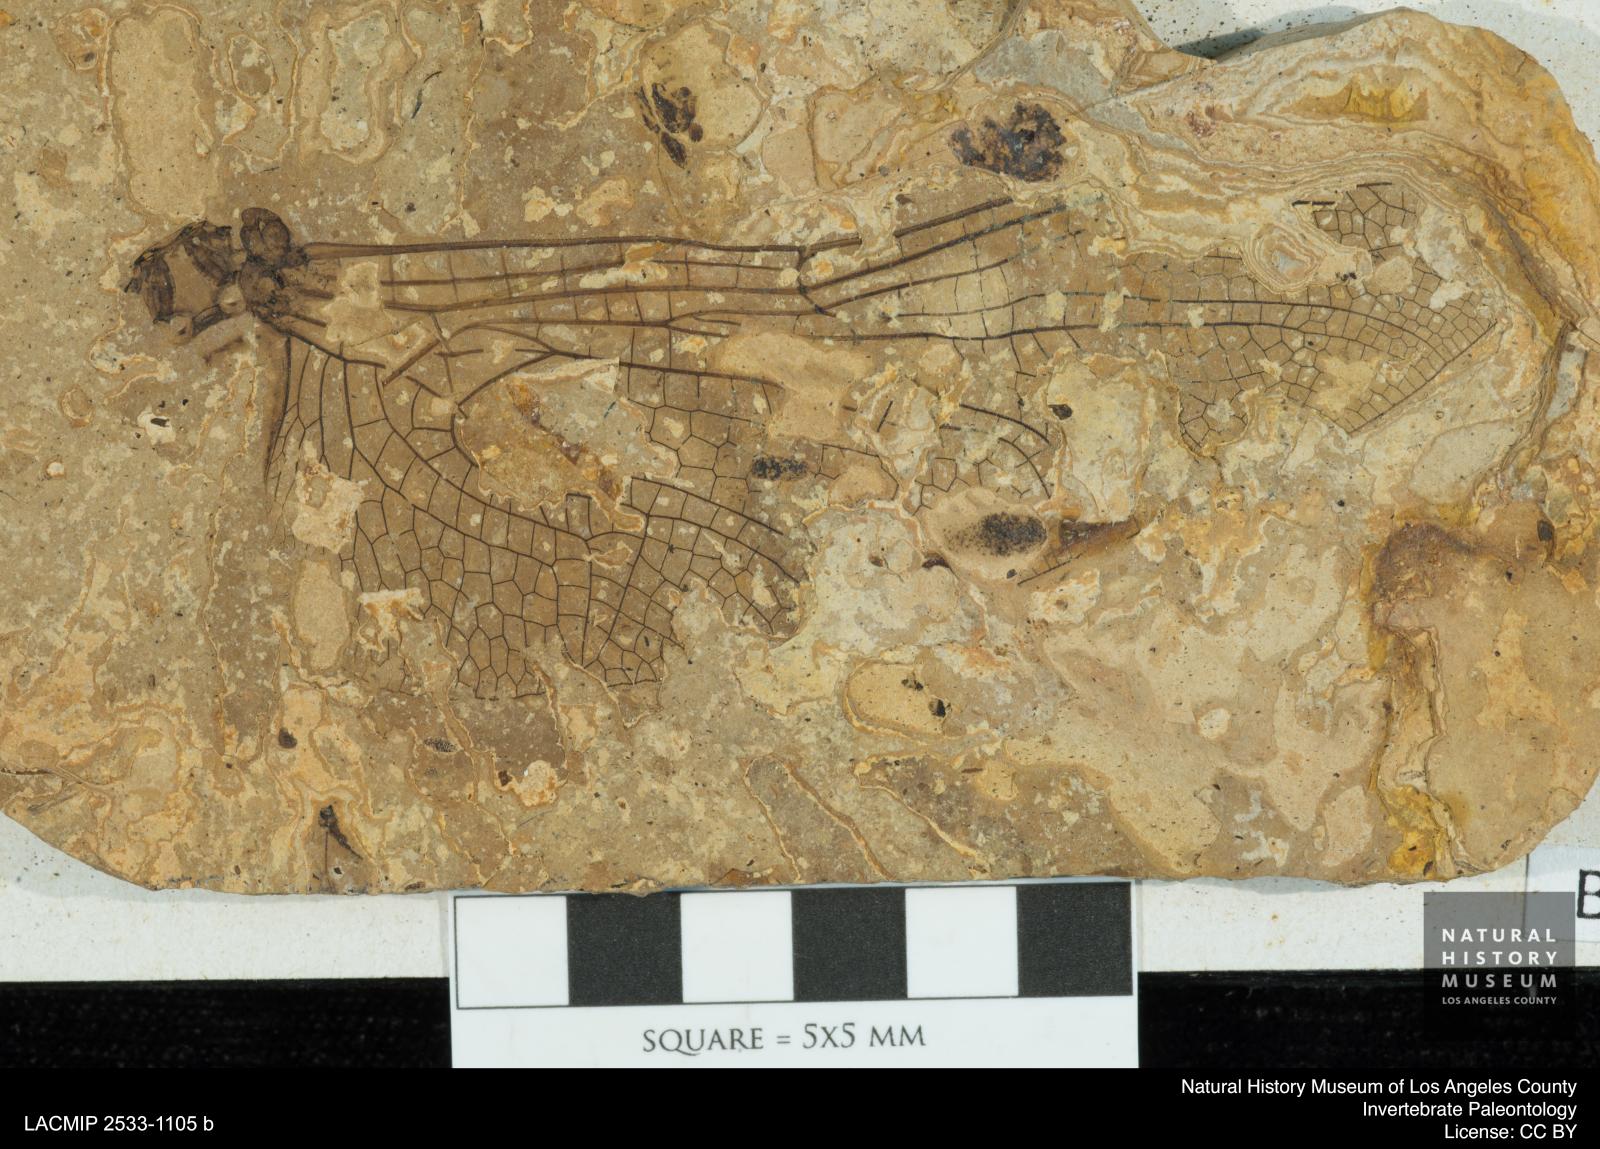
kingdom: Animalia
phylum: Arthropoda
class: Insecta
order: Odonata
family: Libellulidae
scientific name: Libellulidae
